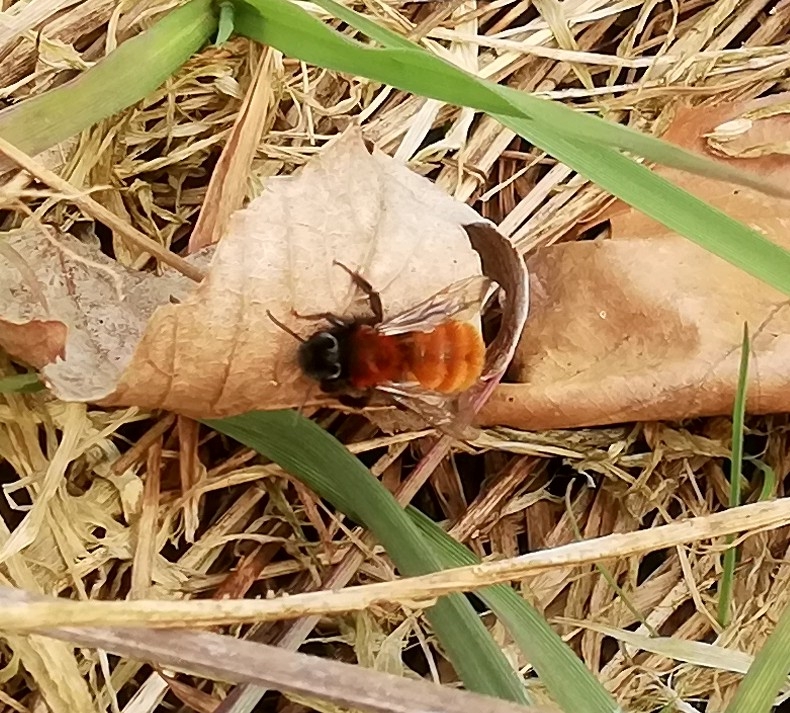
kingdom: Animalia
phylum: Arthropoda
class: Insecta
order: Hymenoptera
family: Andrenidae
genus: Andrena
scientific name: Andrena fulva
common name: Rødpelset jordbi
